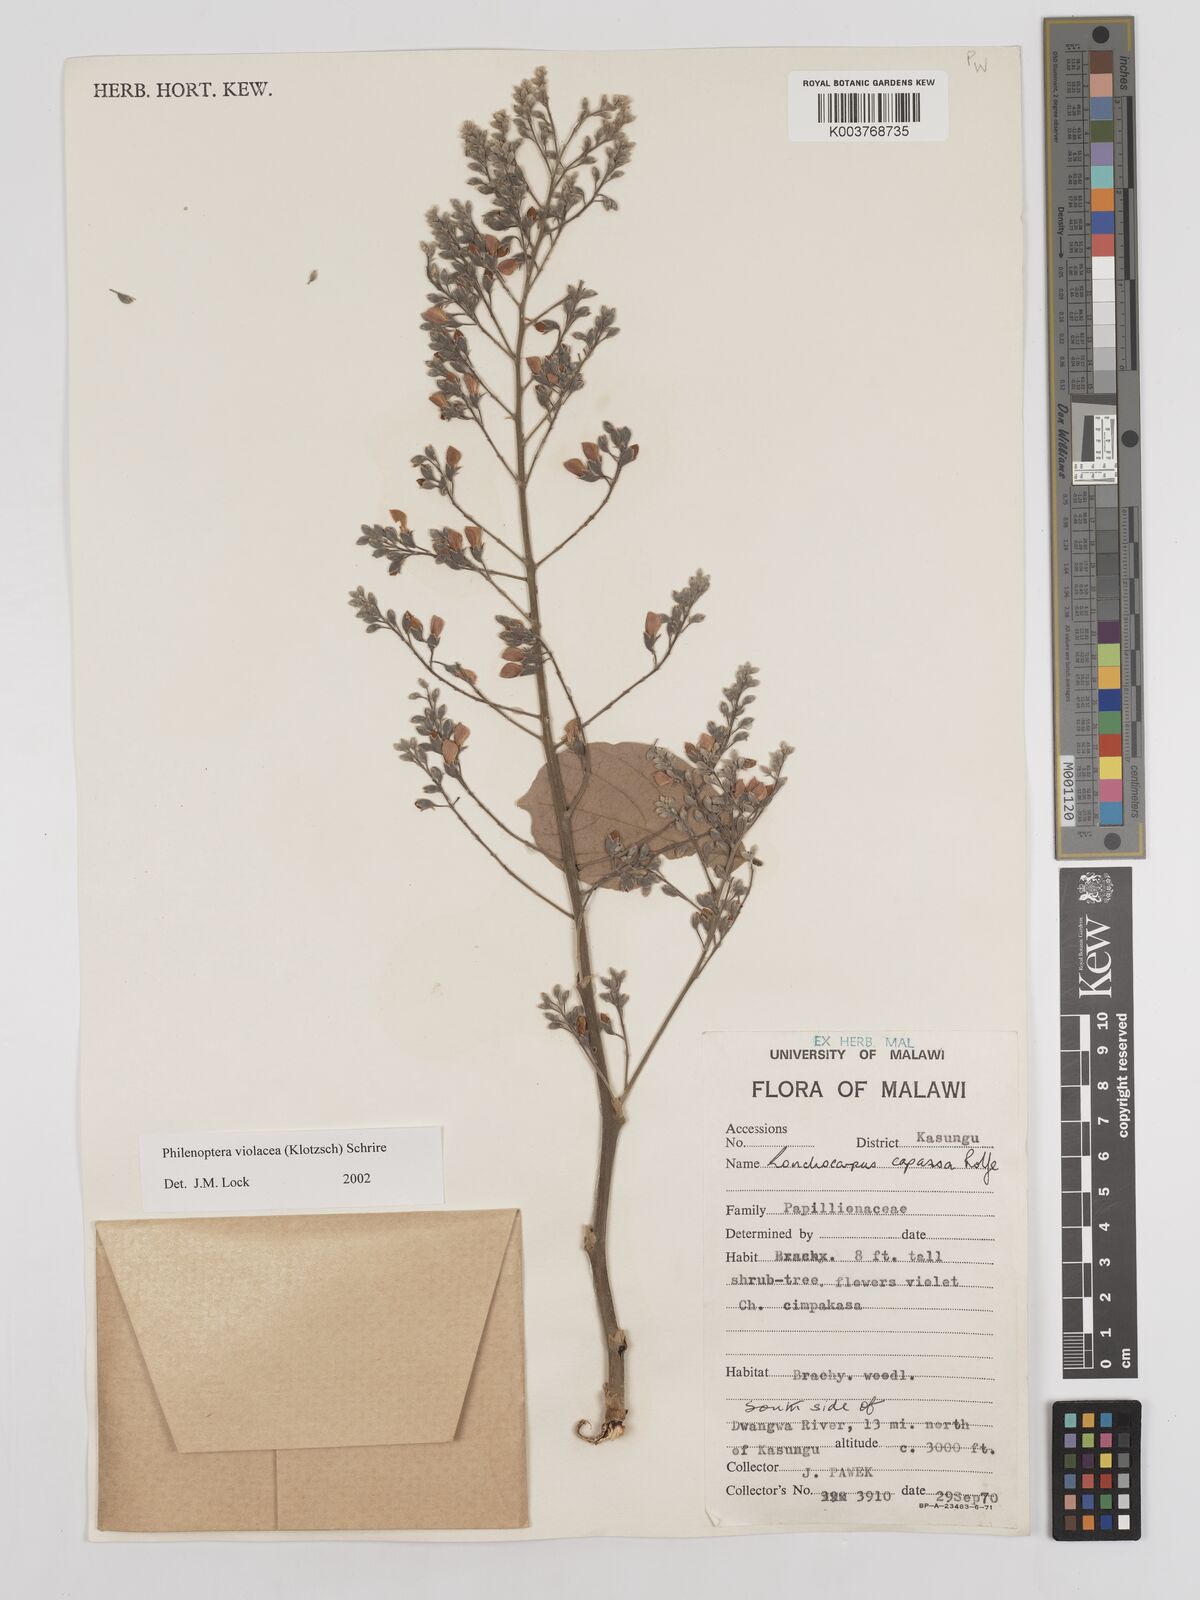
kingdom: Plantae
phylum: Tracheophyta
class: Magnoliopsida
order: Fabales
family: Fabaceae
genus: Philenoptera
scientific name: Philenoptera violacea
